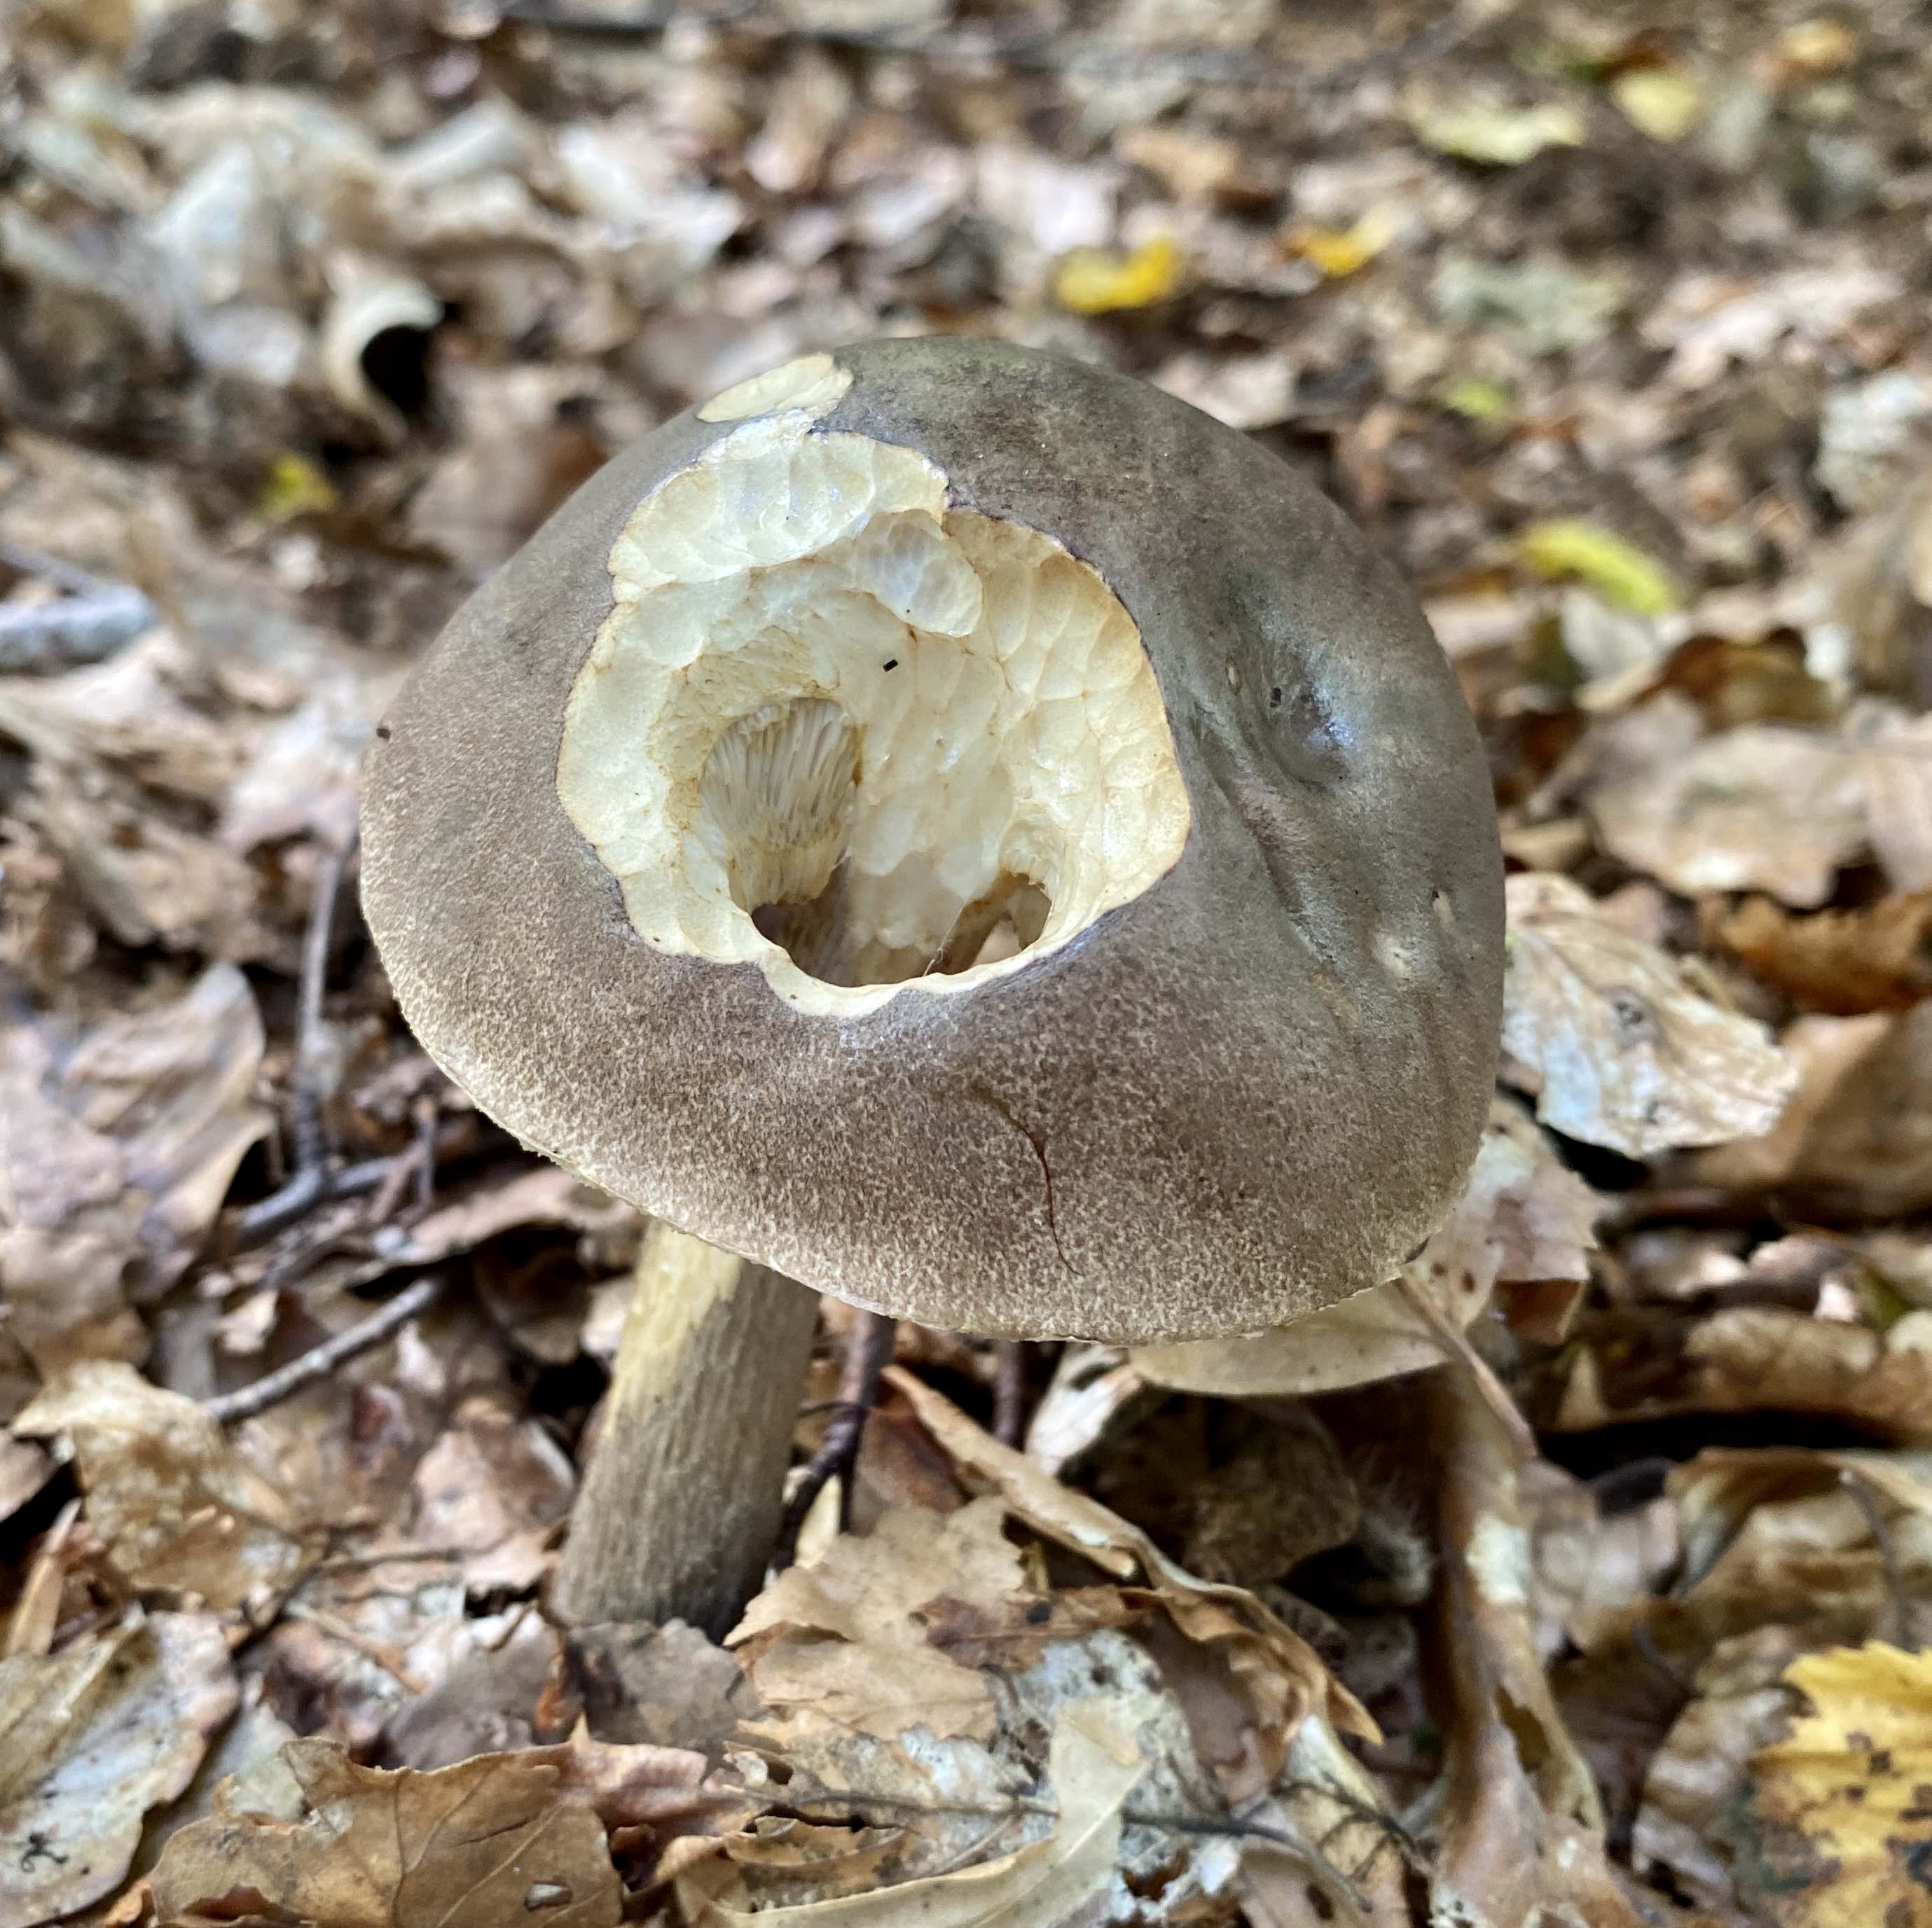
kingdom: Fungi
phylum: Basidiomycota
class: Agaricomycetes
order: Boletales
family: Boletaceae
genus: Leccinum
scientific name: Leccinum
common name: skælrørhat
